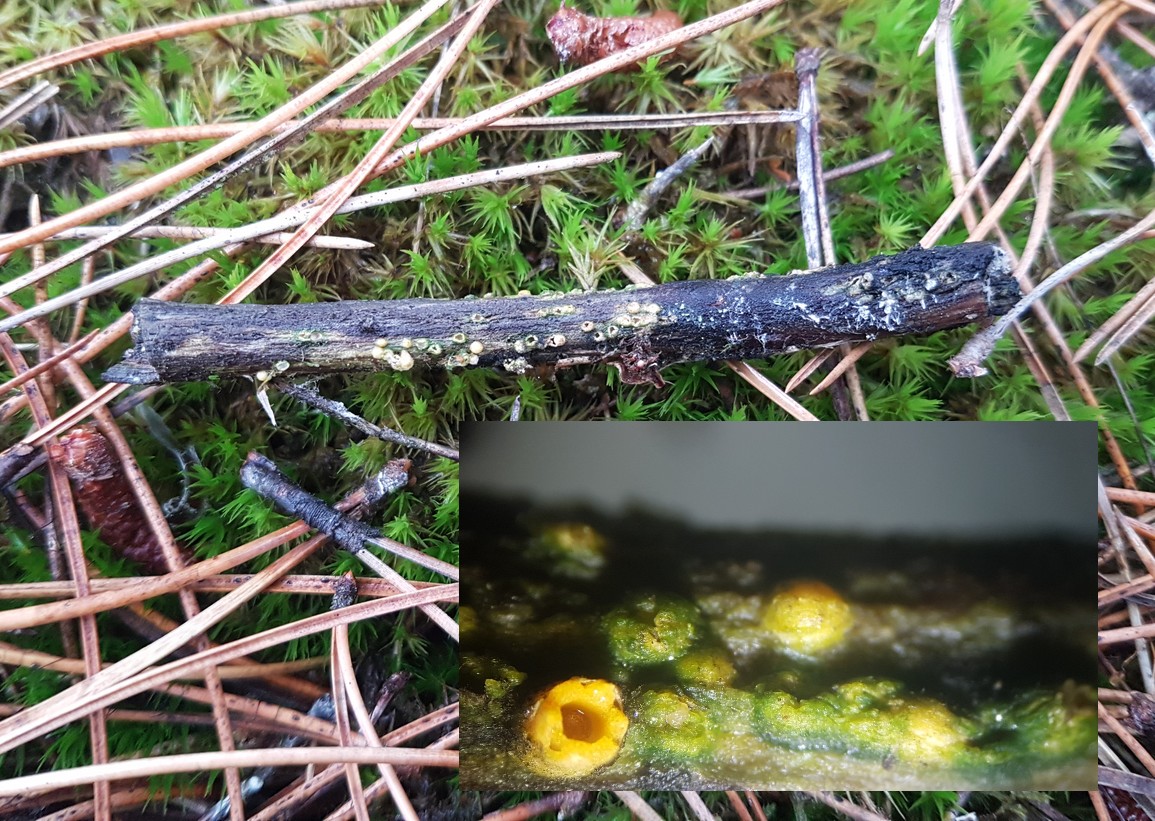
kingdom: Fungi
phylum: Basidiomycota
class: Agaricomycetes
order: Geastrales
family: Geastraceae
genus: Sphaerobolus
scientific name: Sphaerobolus stellatus
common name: bombekaster
